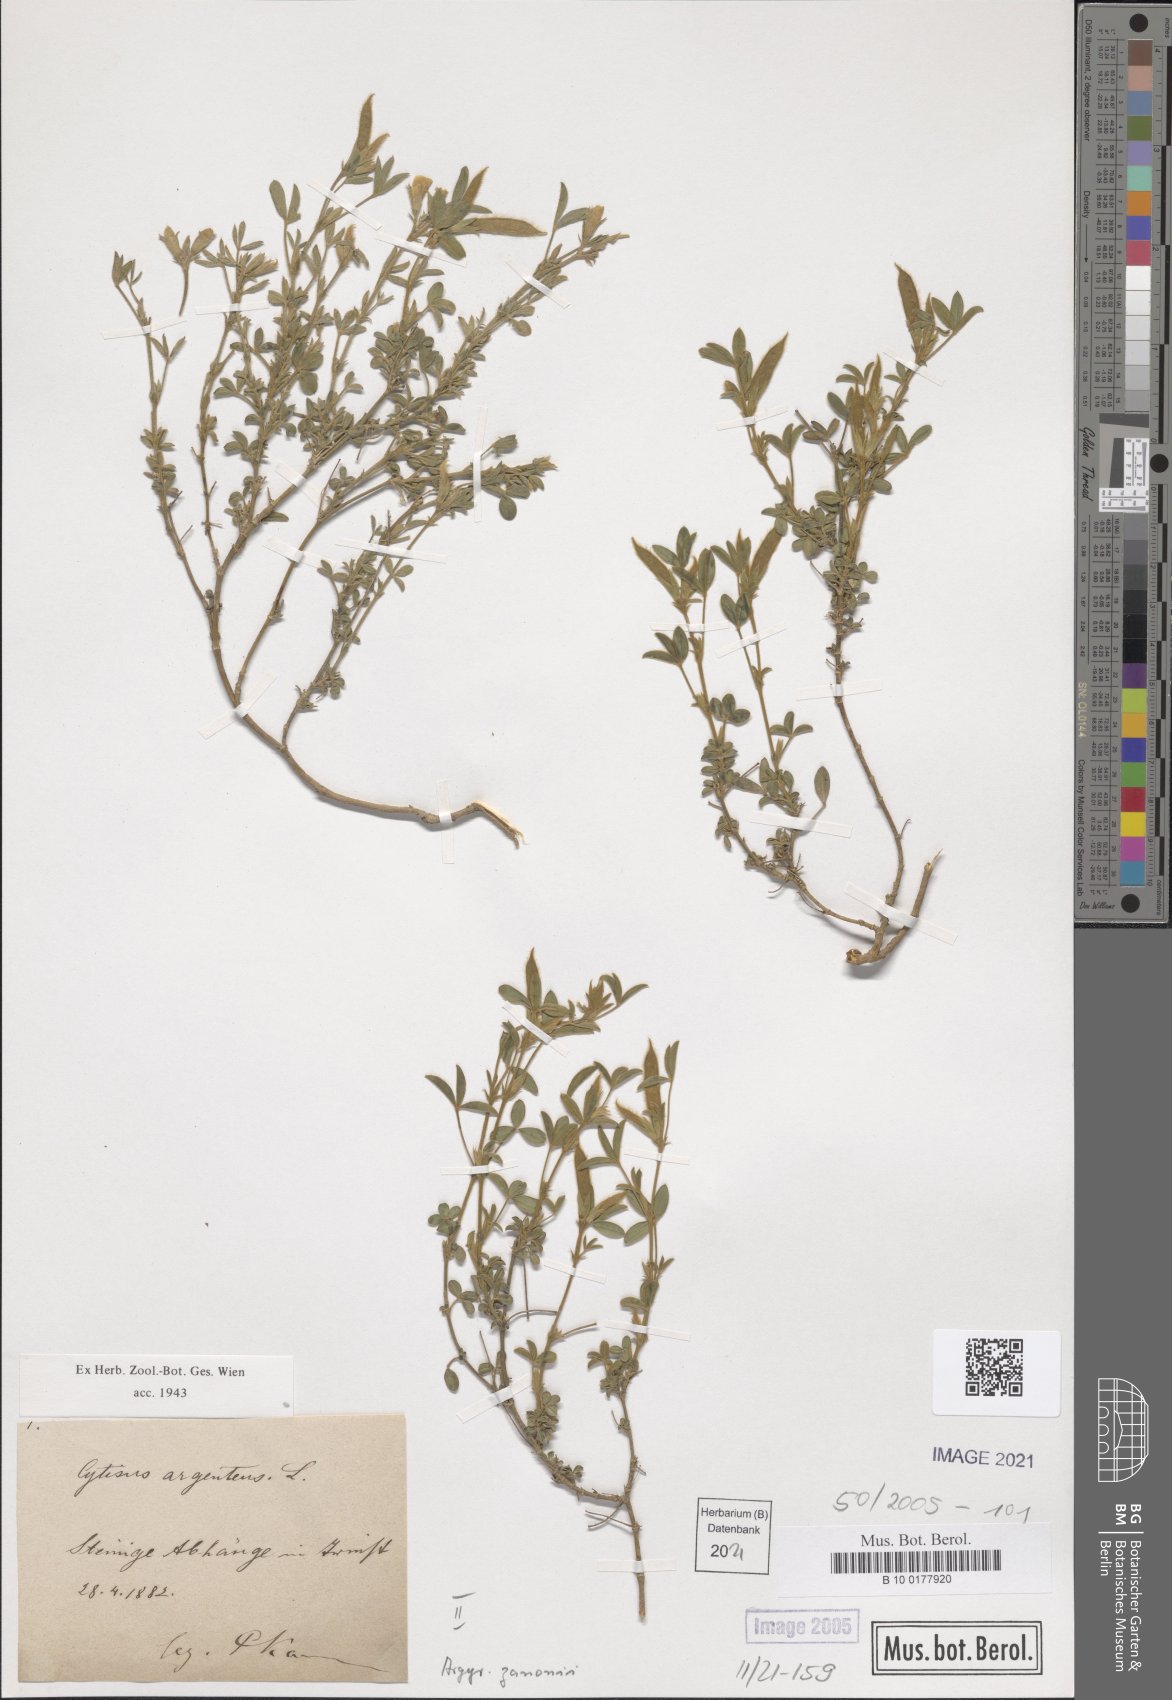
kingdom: Plantae
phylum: Tracheophyta
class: Magnoliopsida
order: Fabales
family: Fabaceae
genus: Argyrolobium
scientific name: Argyrolobium zanonii
